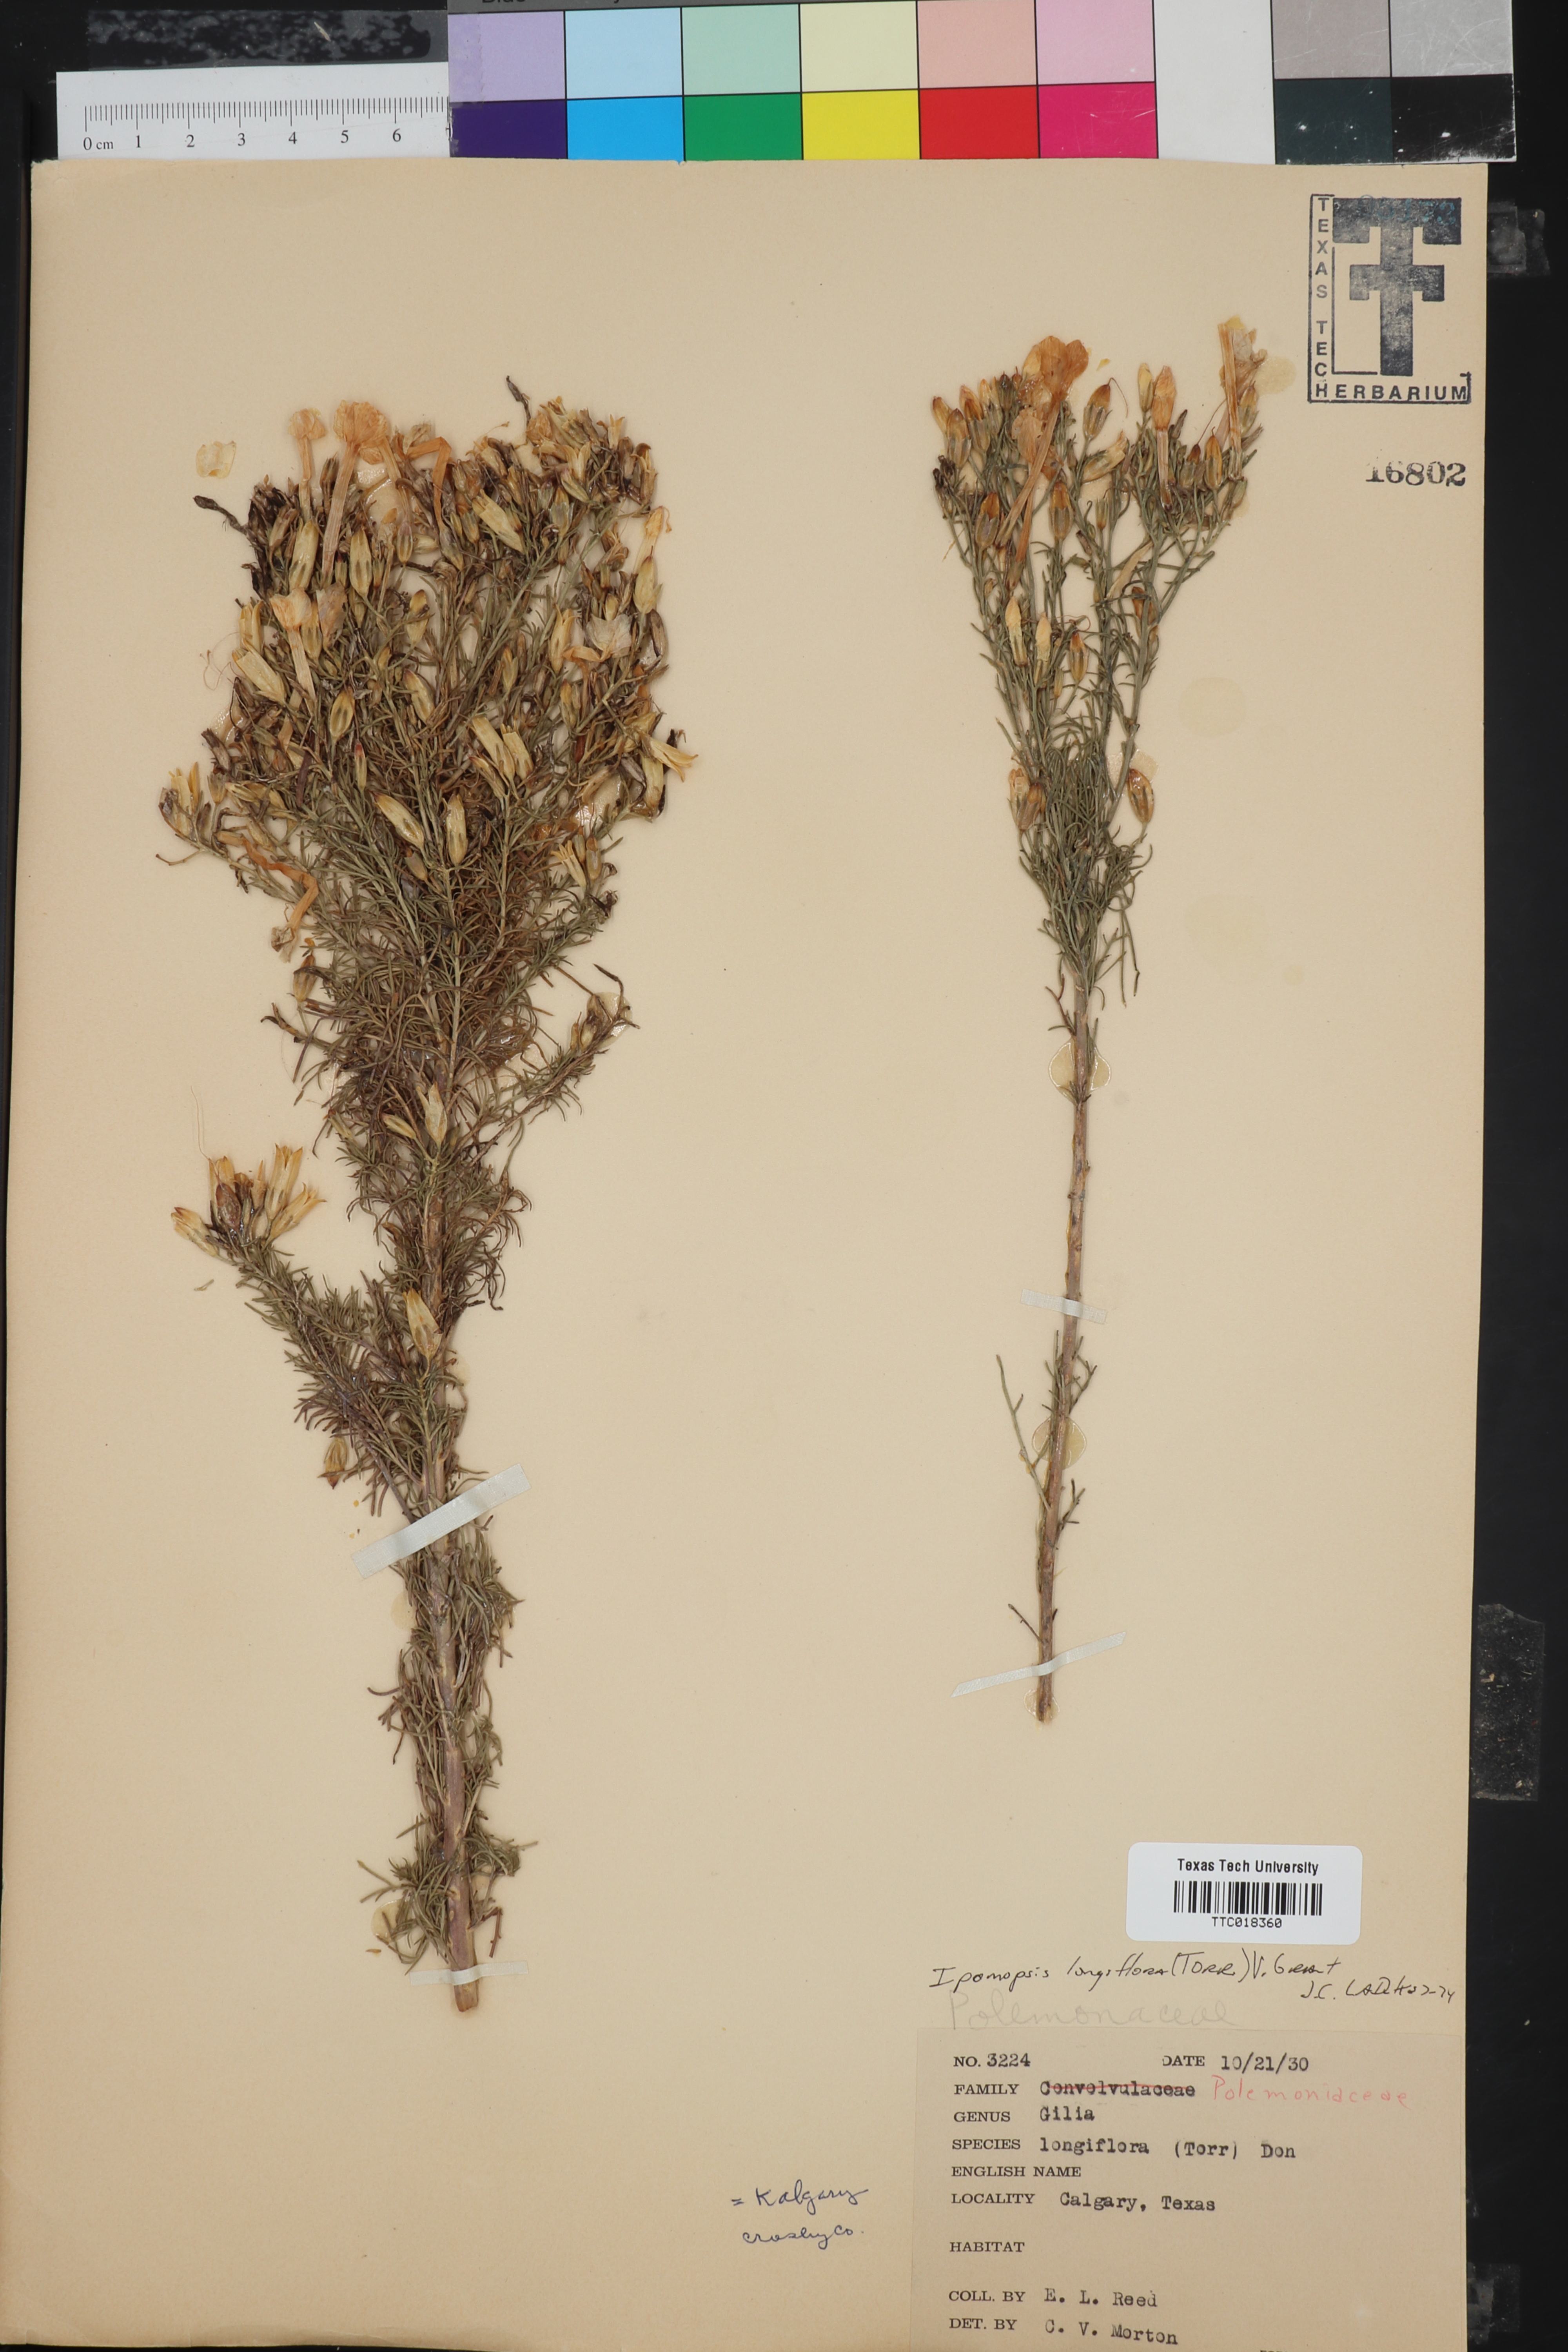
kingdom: Plantae
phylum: Tracheophyta
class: Magnoliopsida
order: Ericales
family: Polemoniaceae
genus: Ipomopsis
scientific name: Ipomopsis longiflora
